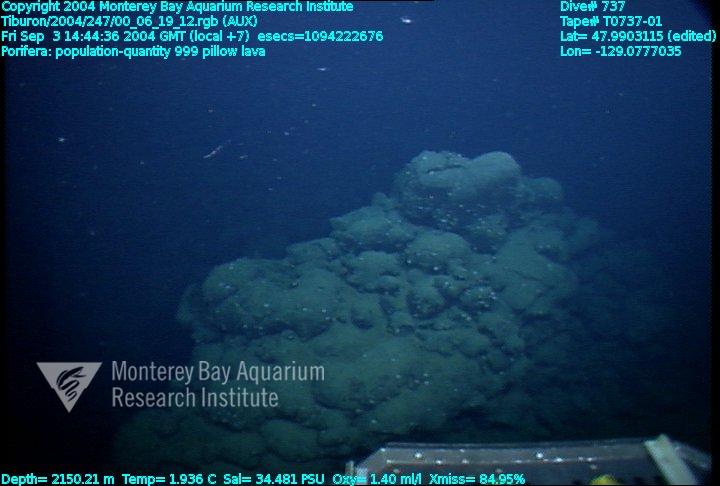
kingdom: Animalia
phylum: Porifera
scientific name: Porifera
